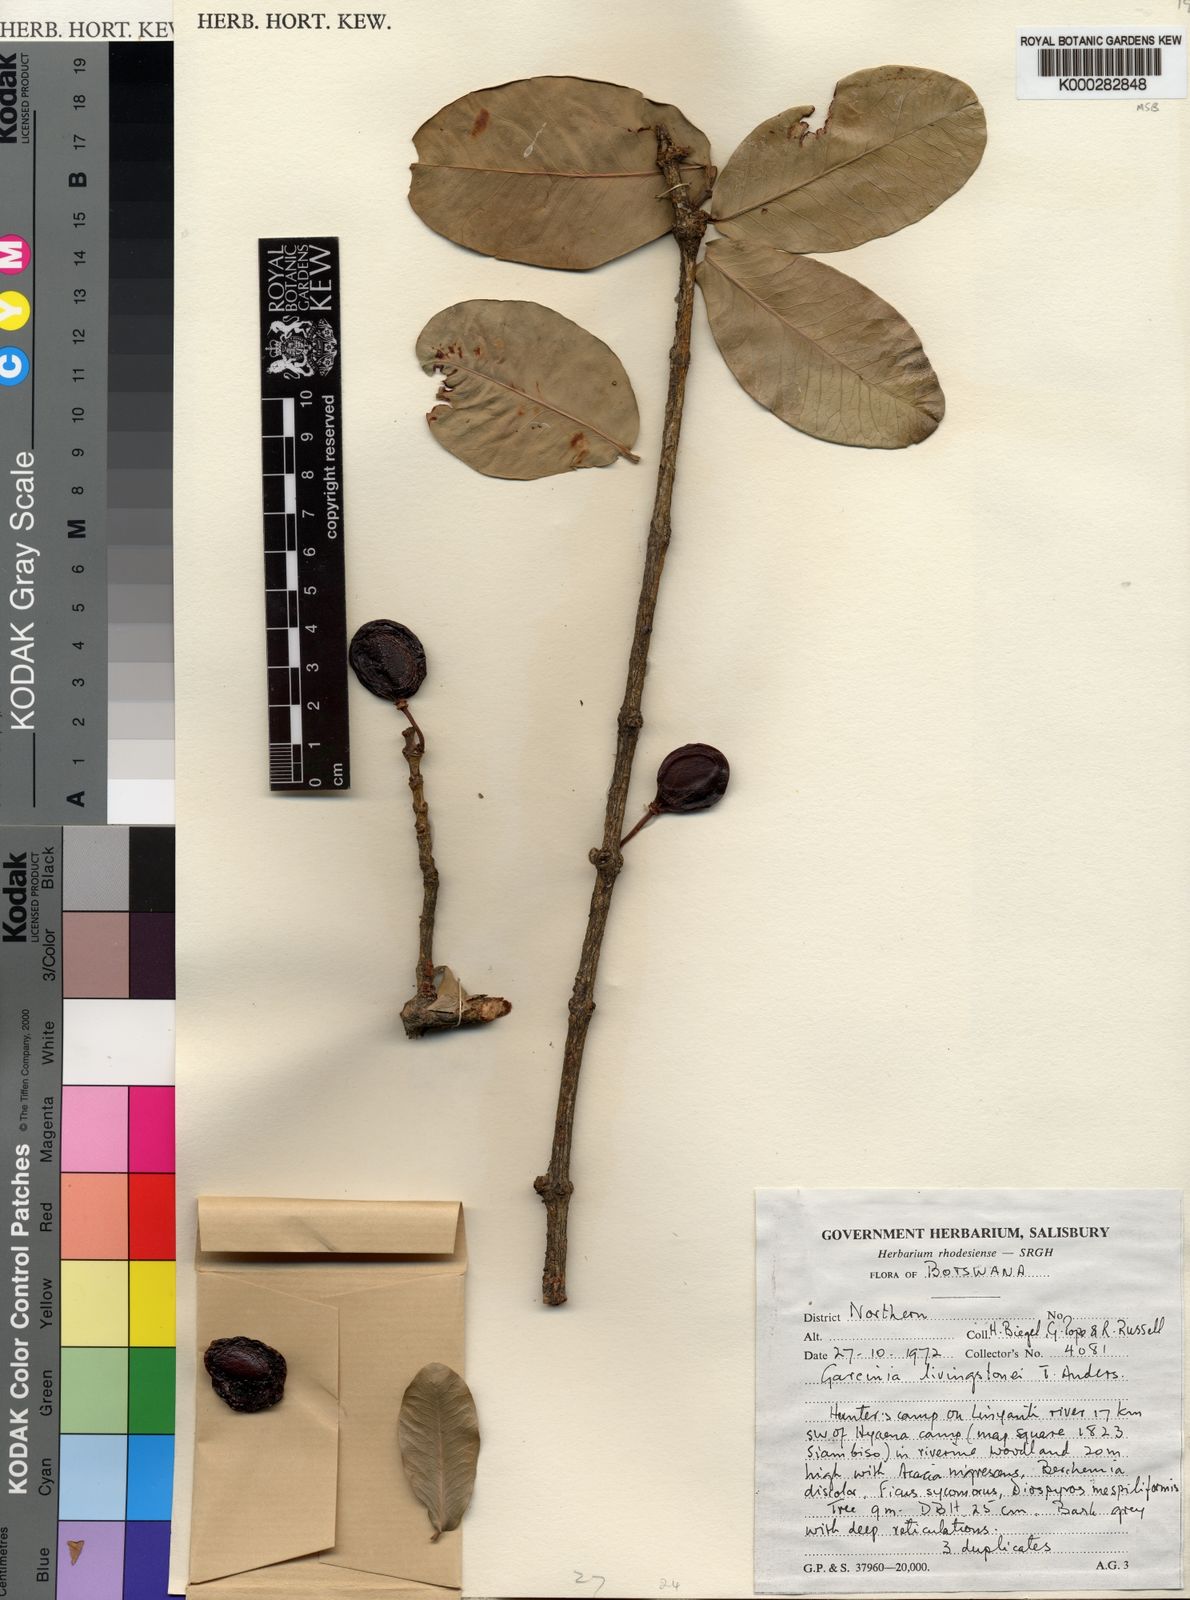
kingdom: Plantae
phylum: Tracheophyta
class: Magnoliopsida
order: Malpighiales
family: Clusiaceae
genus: Garcinia
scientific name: Garcinia livingstonei
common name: African mangosteen
